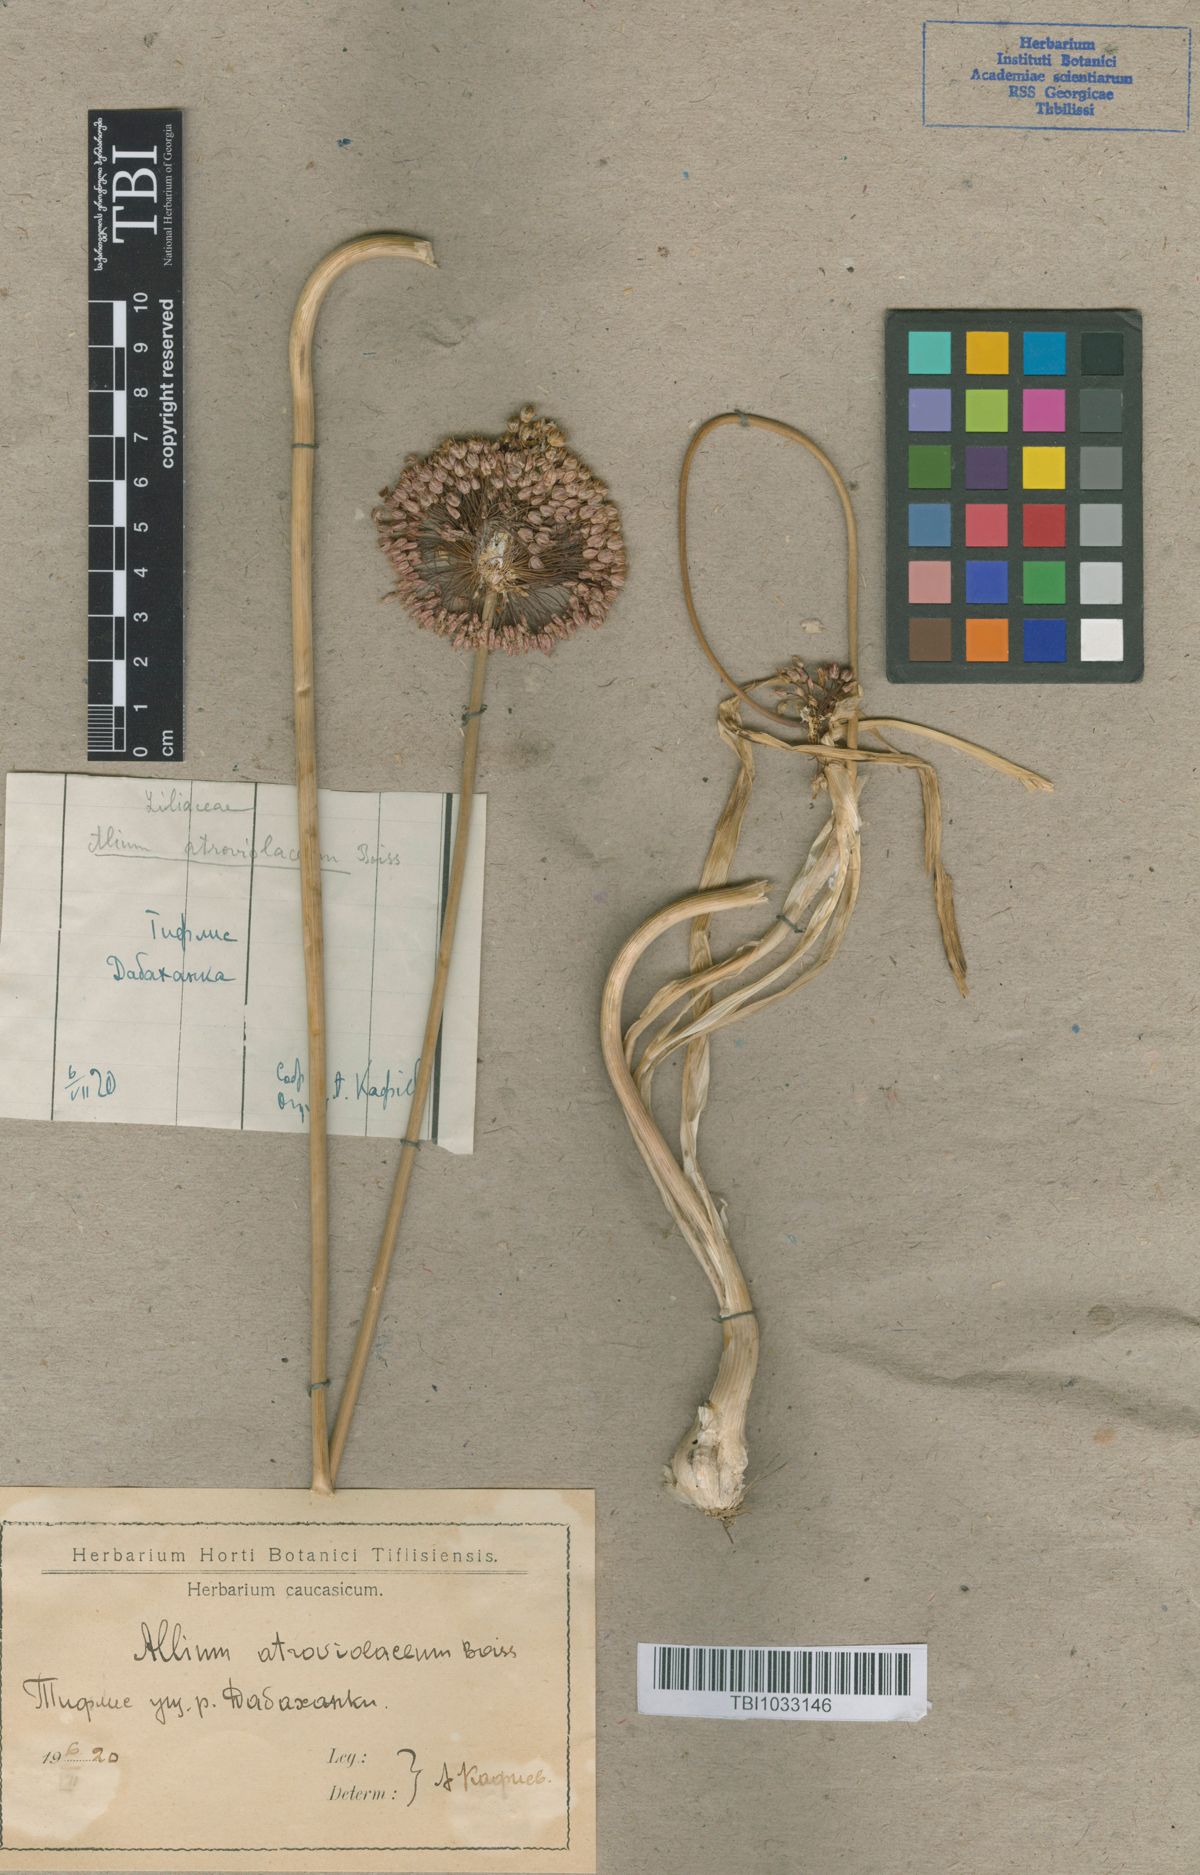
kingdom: Plantae
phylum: Tracheophyta
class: Liliopsida
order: Asparagales
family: Amaryllidaceae
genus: Allium
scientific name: Allium atroviolaceum
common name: Broadleaf wild leek
